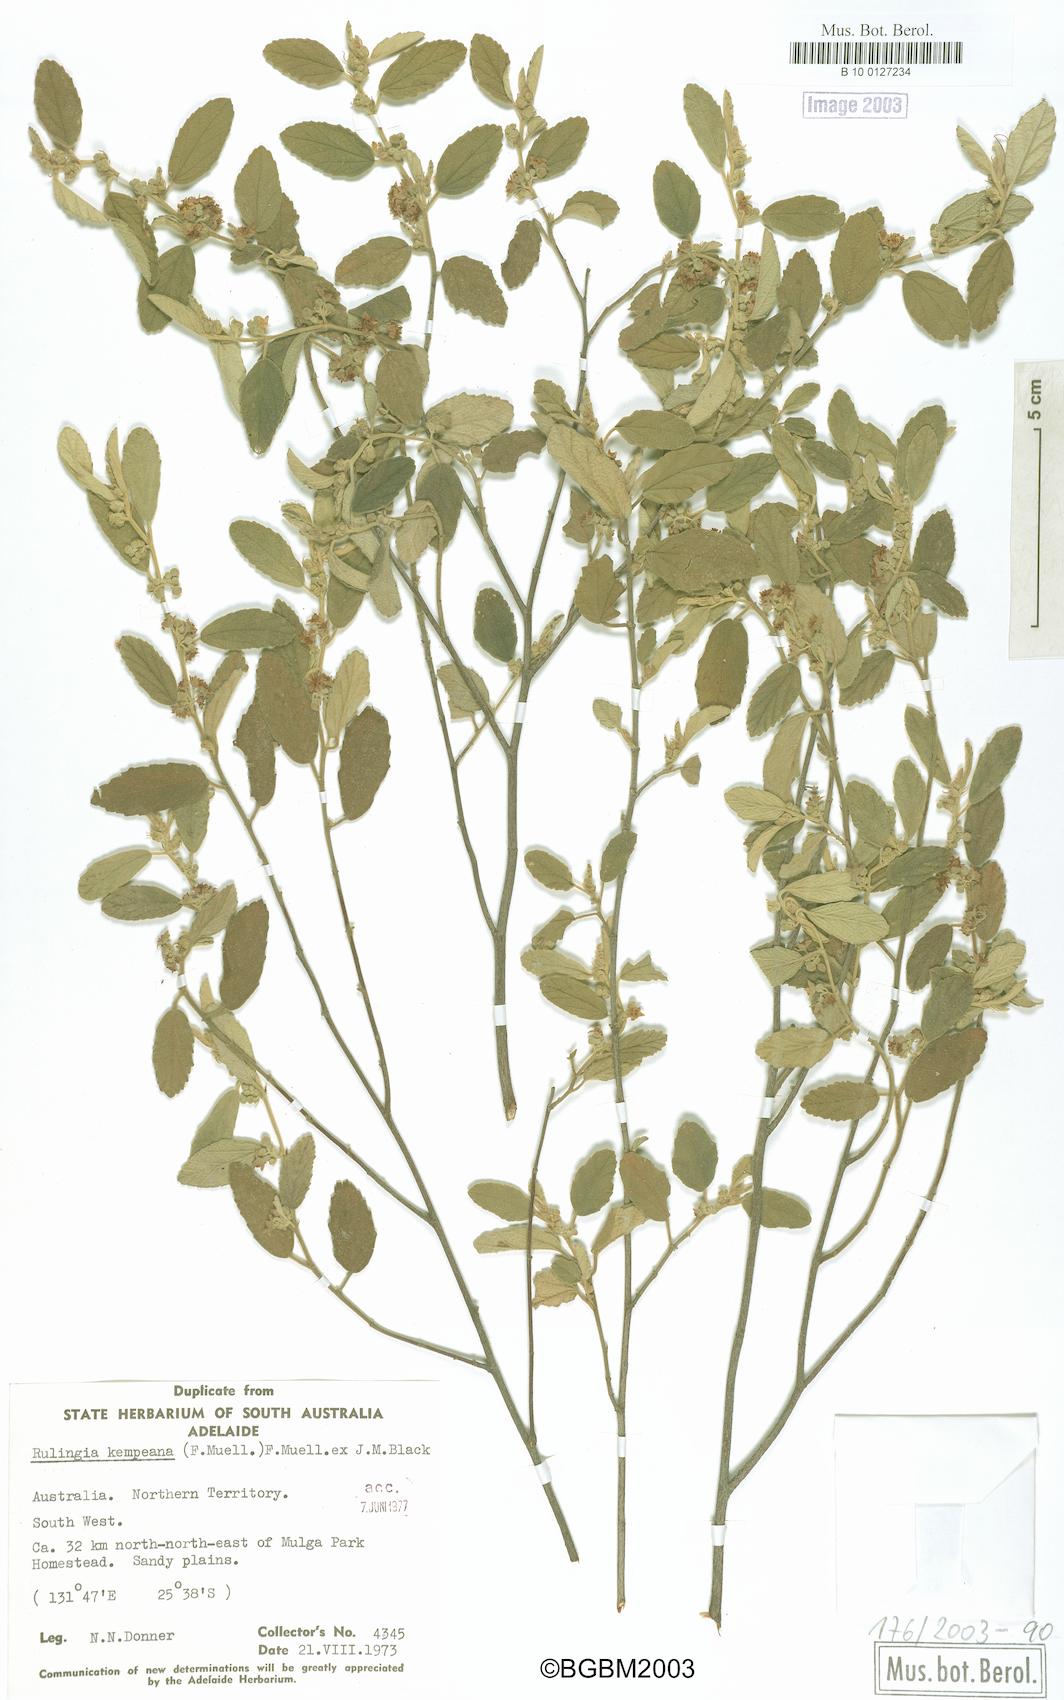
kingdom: Plantae
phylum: Tracheophyta
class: Magnoliopsida
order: Malvales
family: Malvaceae
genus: Androcalva
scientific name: Androcalva loxophylla
